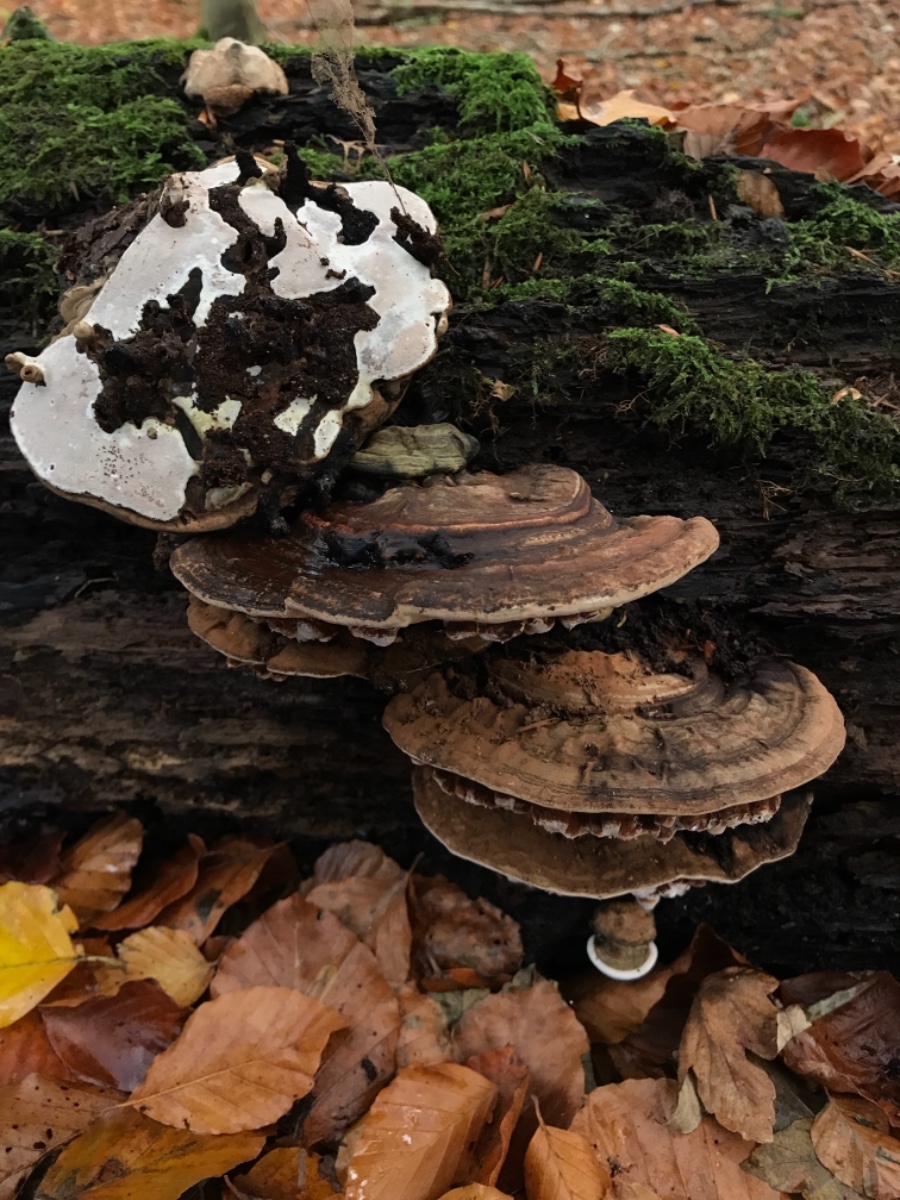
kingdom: Fungi
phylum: Basidiomycota
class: Agaricomycetes
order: Polyporales
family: Polyporaceae
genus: Ganoderma
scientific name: Ganoderma applanatum
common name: flad lakporesvamp
